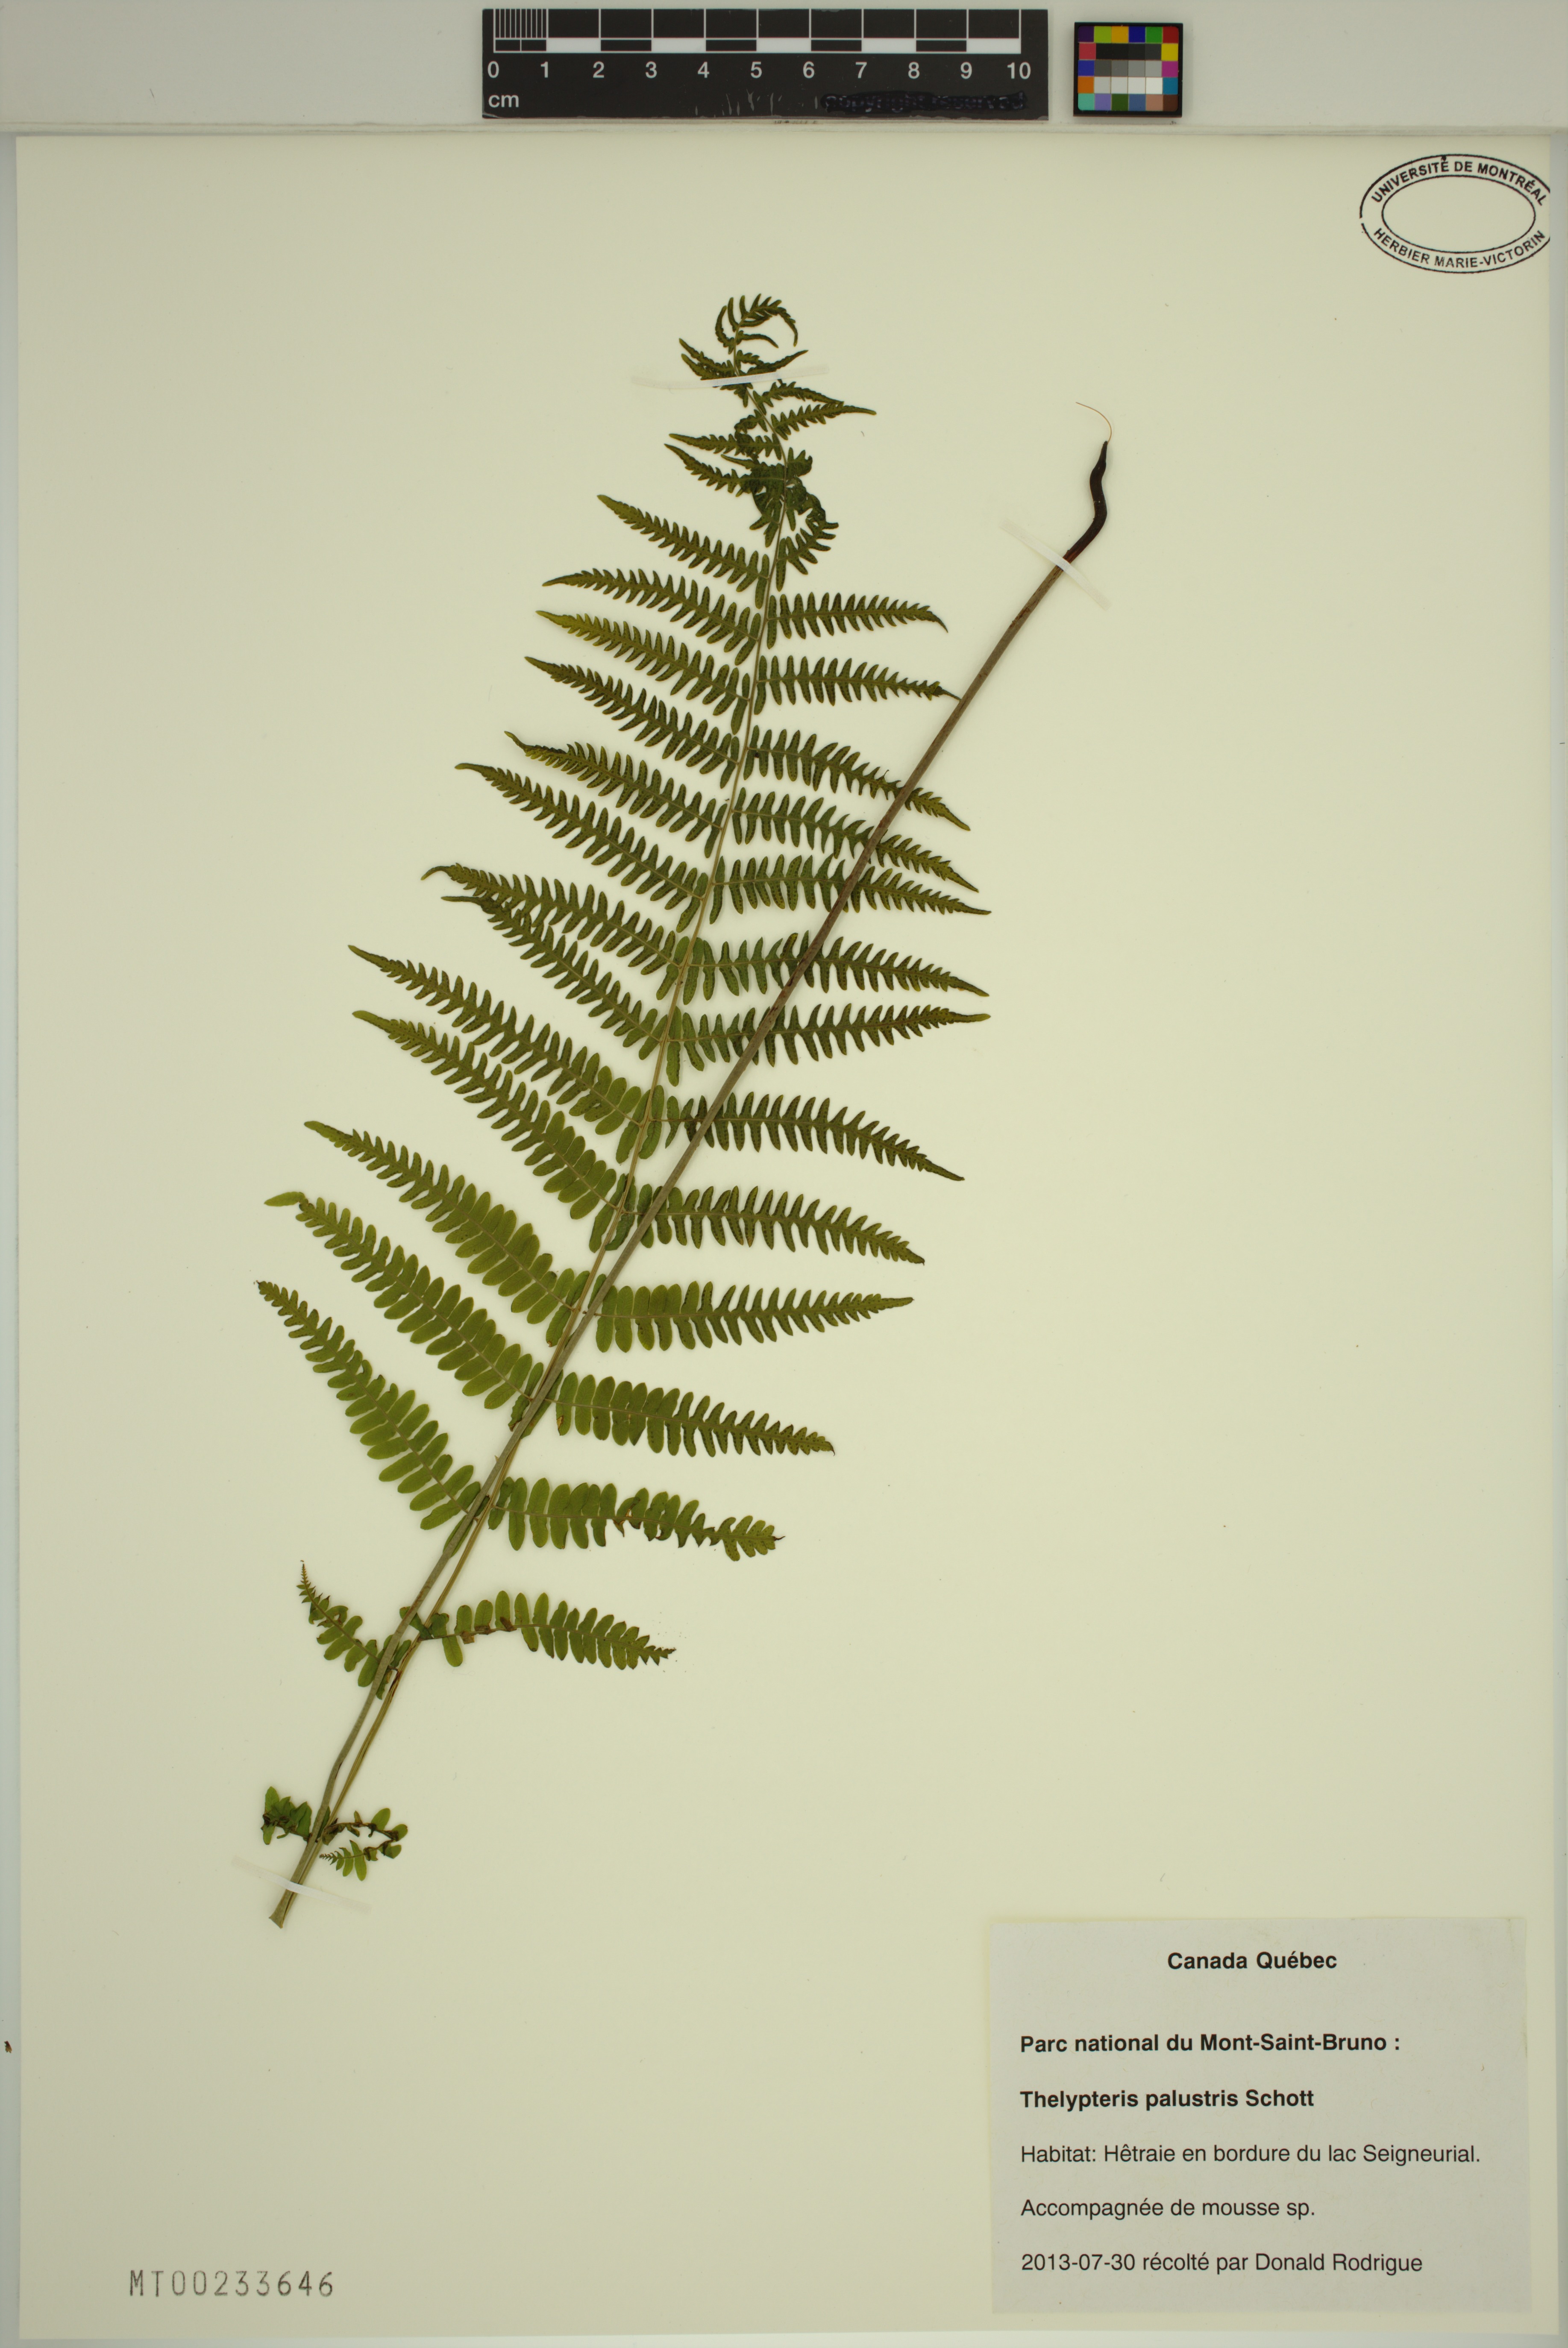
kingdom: Plantae
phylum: Tracheophyta
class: Polypodiopsida
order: Polypodiales
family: Thelypteridaceae
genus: Thelypteris
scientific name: Thelypteris palustris
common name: Marsh fern
